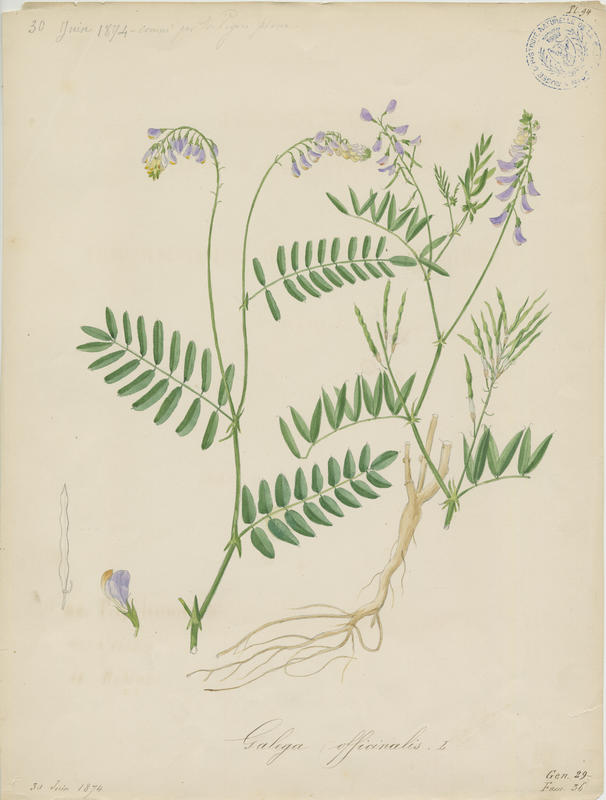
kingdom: Plantae
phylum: Tracheophyta
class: Magnoliopsida
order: Fabales
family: Fabaceae
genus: Galega
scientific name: Galega officinalis
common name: Goat's-rue
